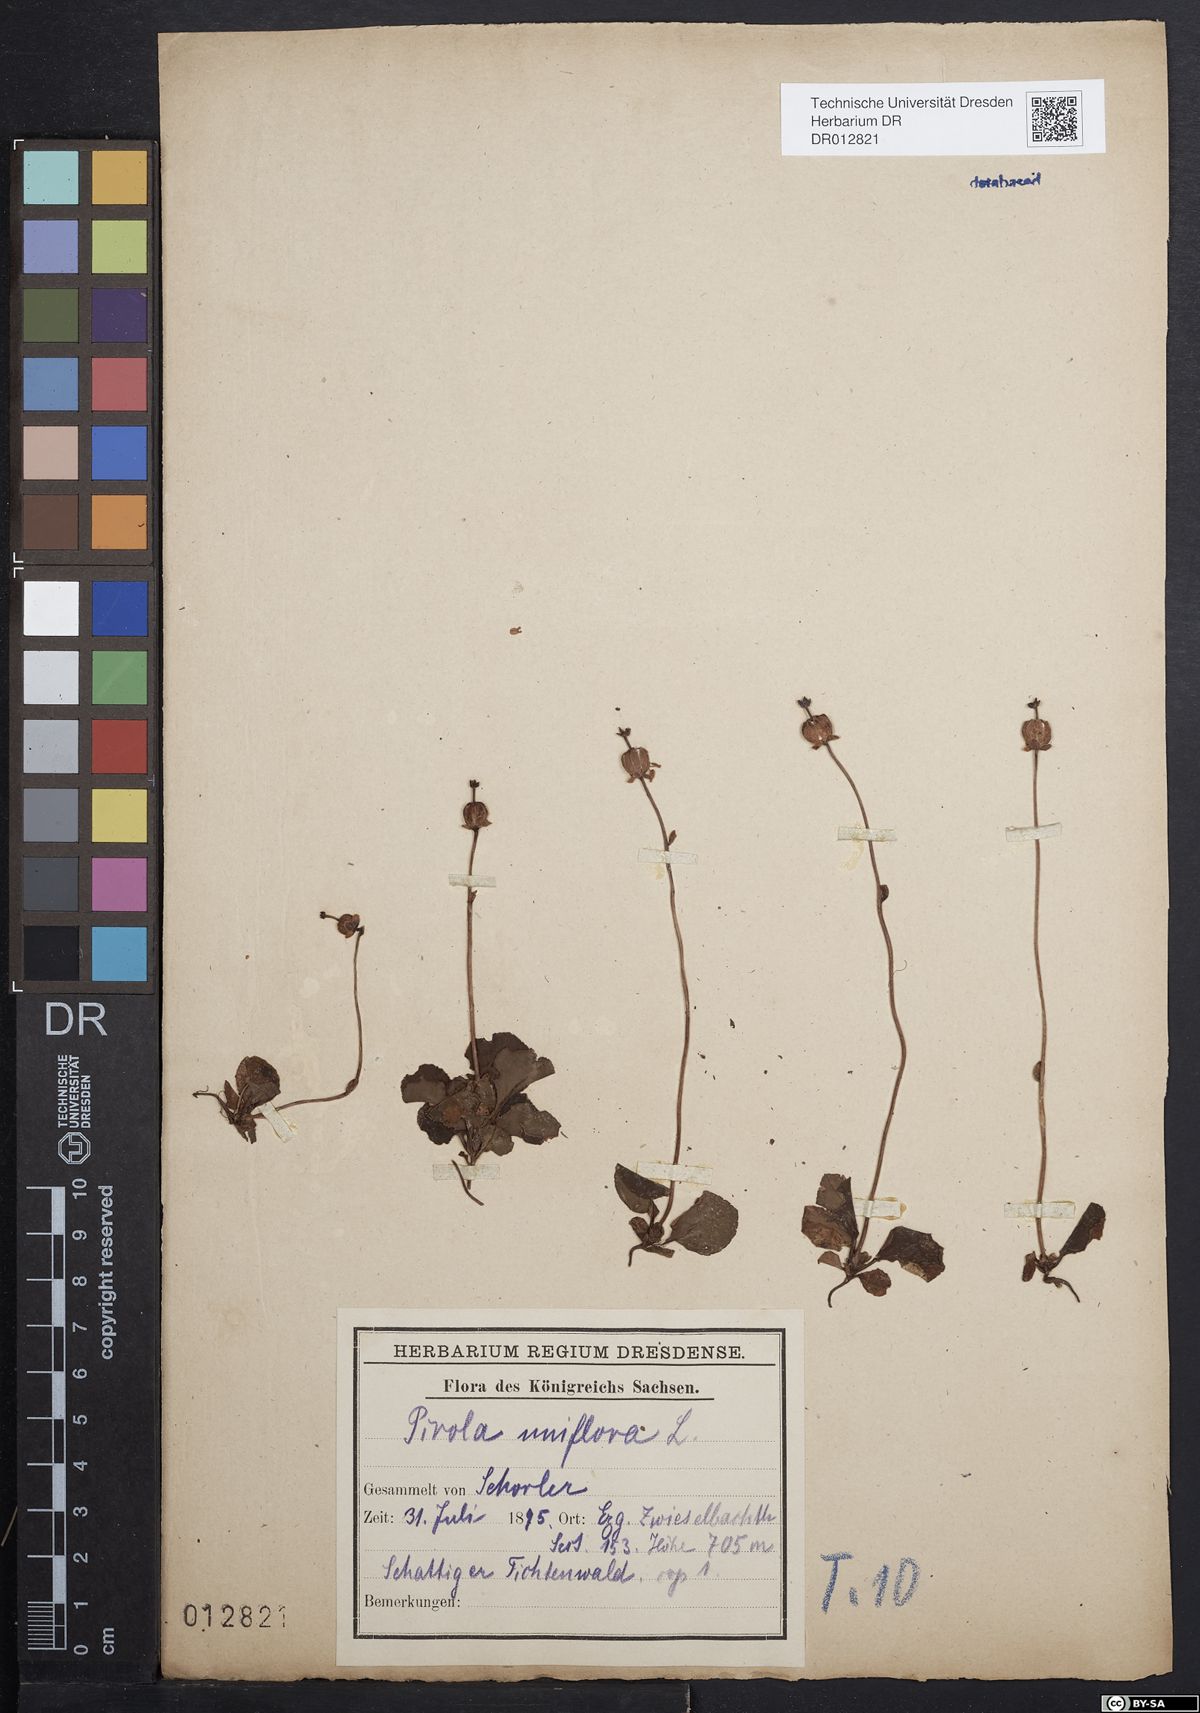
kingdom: Plantae
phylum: Tracheophyta
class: Magnoliopsida
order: Ericales
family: Ericaceae
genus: Moneses
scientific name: Moneses uniflora
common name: One-flowered wintergreen
